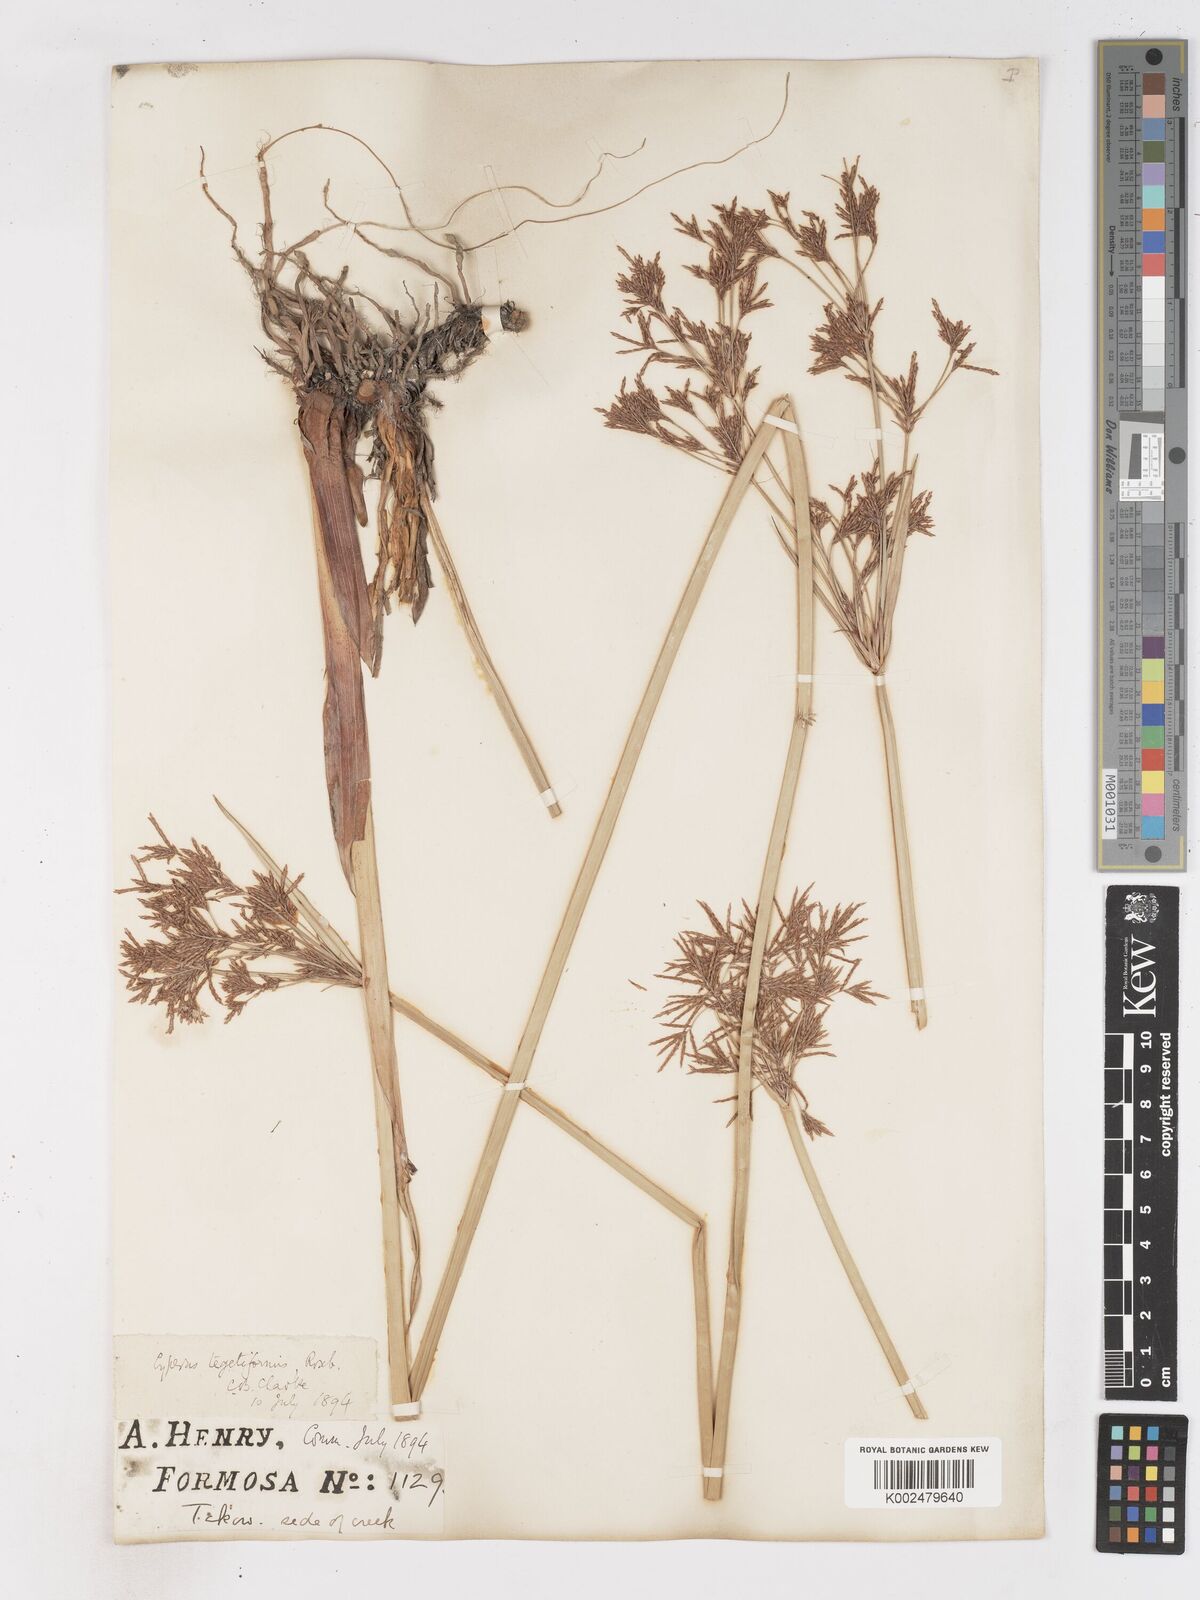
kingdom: Plantae
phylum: Tracheophyta
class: Liliopsida
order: Poales
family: Cyperaceae
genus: Cyperus
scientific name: Cyperus corymbosus
